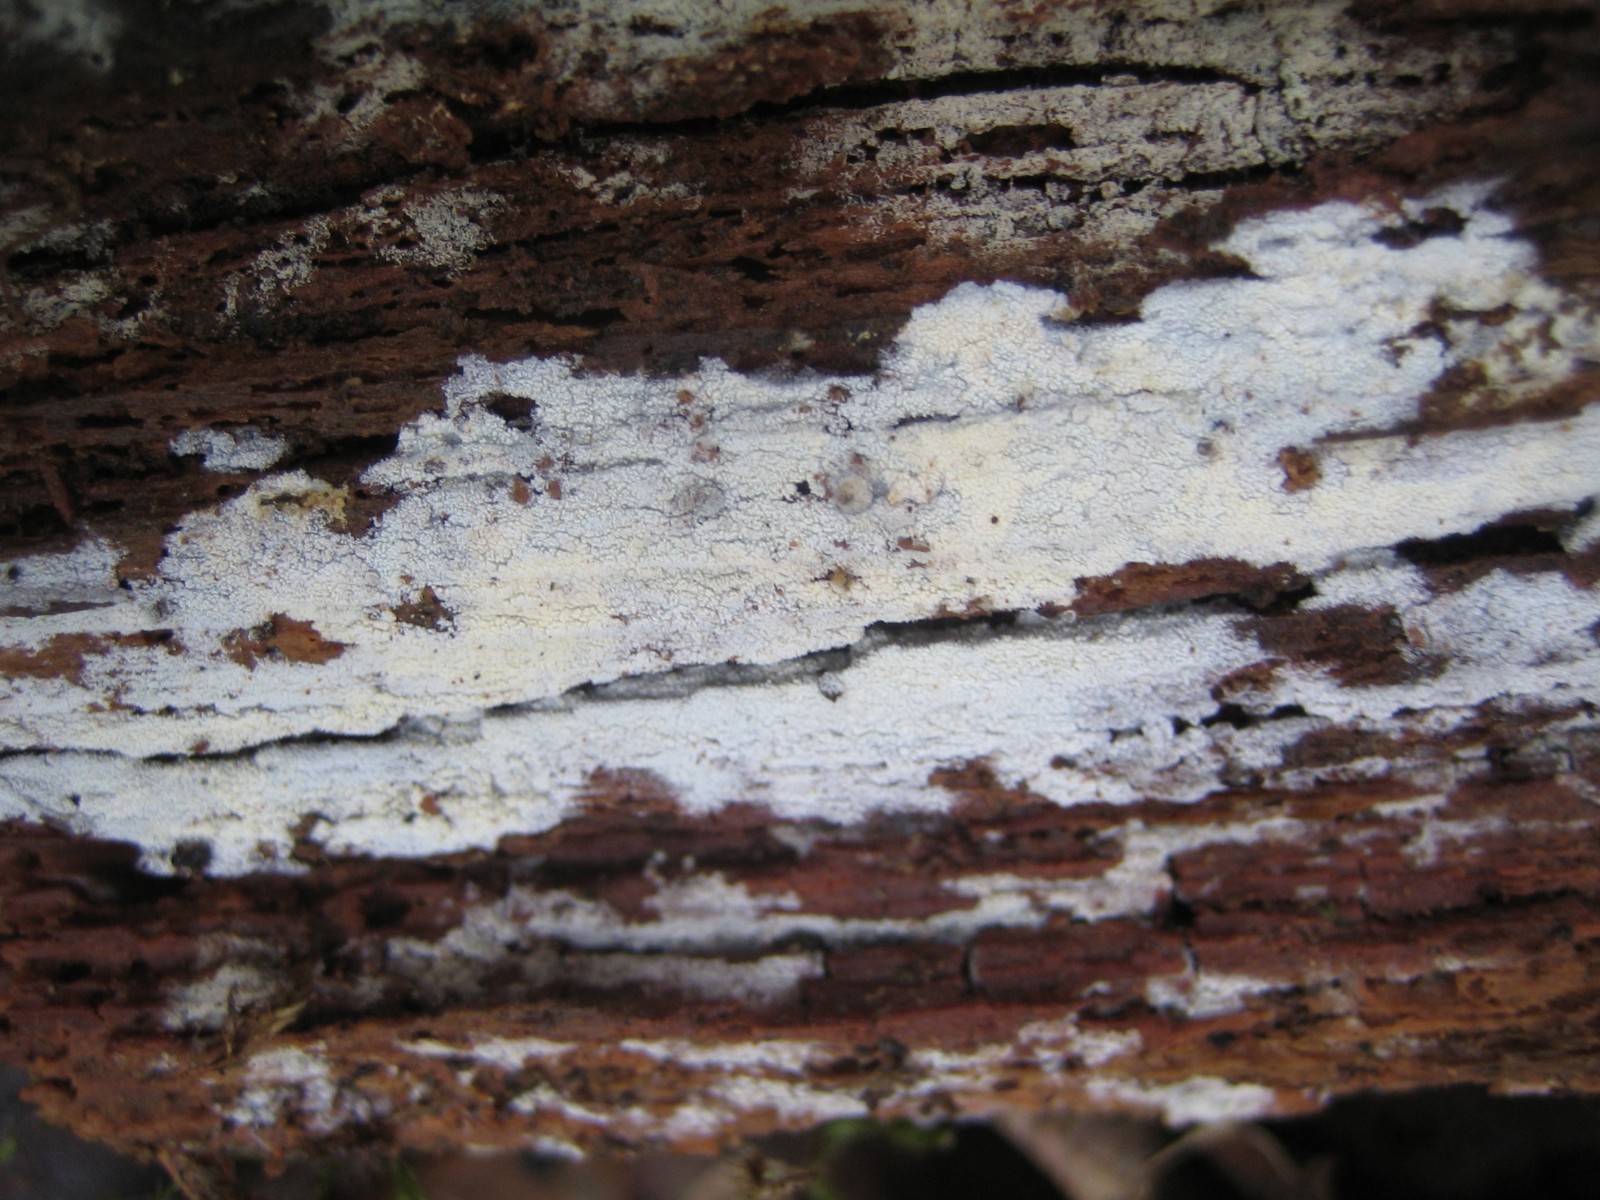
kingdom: Fungi
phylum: Basidiomycota
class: Agaricomycetes
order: Corticiales
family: Corticiaceae
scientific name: Corticiaceae
